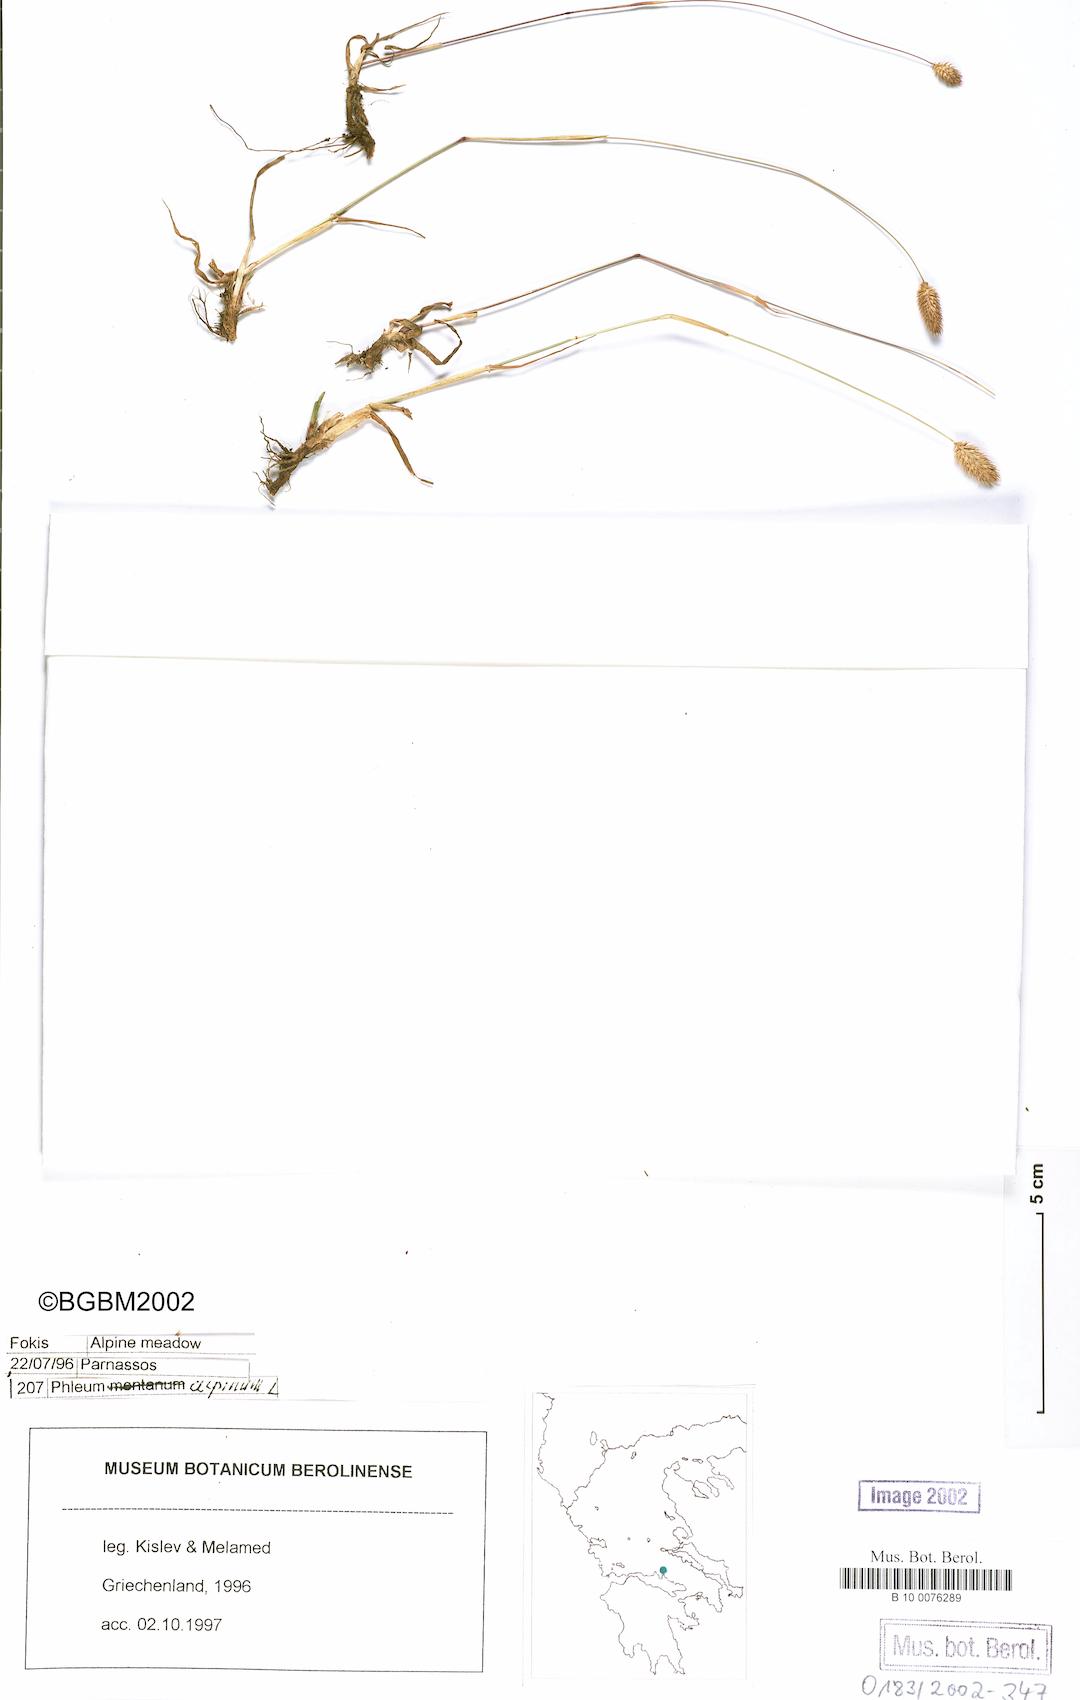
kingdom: Plantae
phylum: Tracheophyta
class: Liliopsida
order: Poales
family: Poaceae
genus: Phleum
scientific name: Phleum alpinum
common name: Alpine cat's-tail
